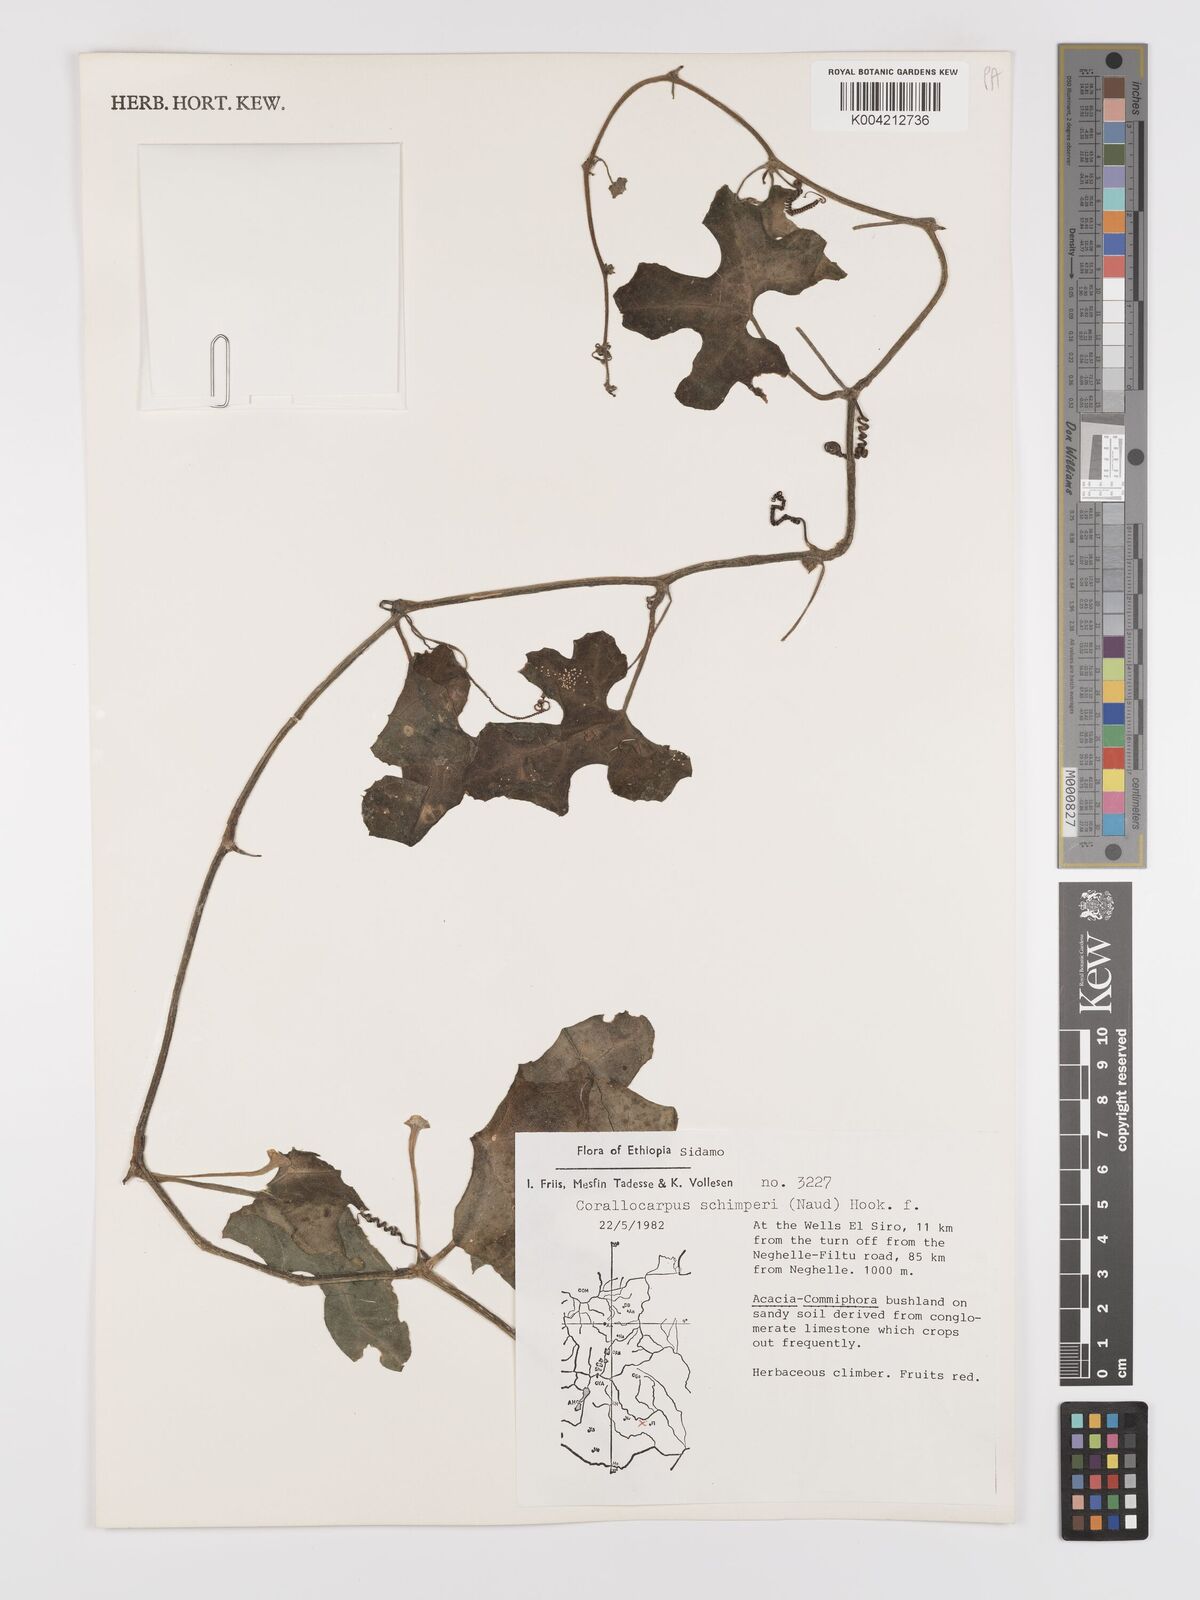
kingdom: Plantae
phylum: Tracheophyta
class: Magnoliopsida
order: Cucurbitales
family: Cucurbitaceae
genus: Corallocarpus
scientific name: Corallocarpus schimperi
